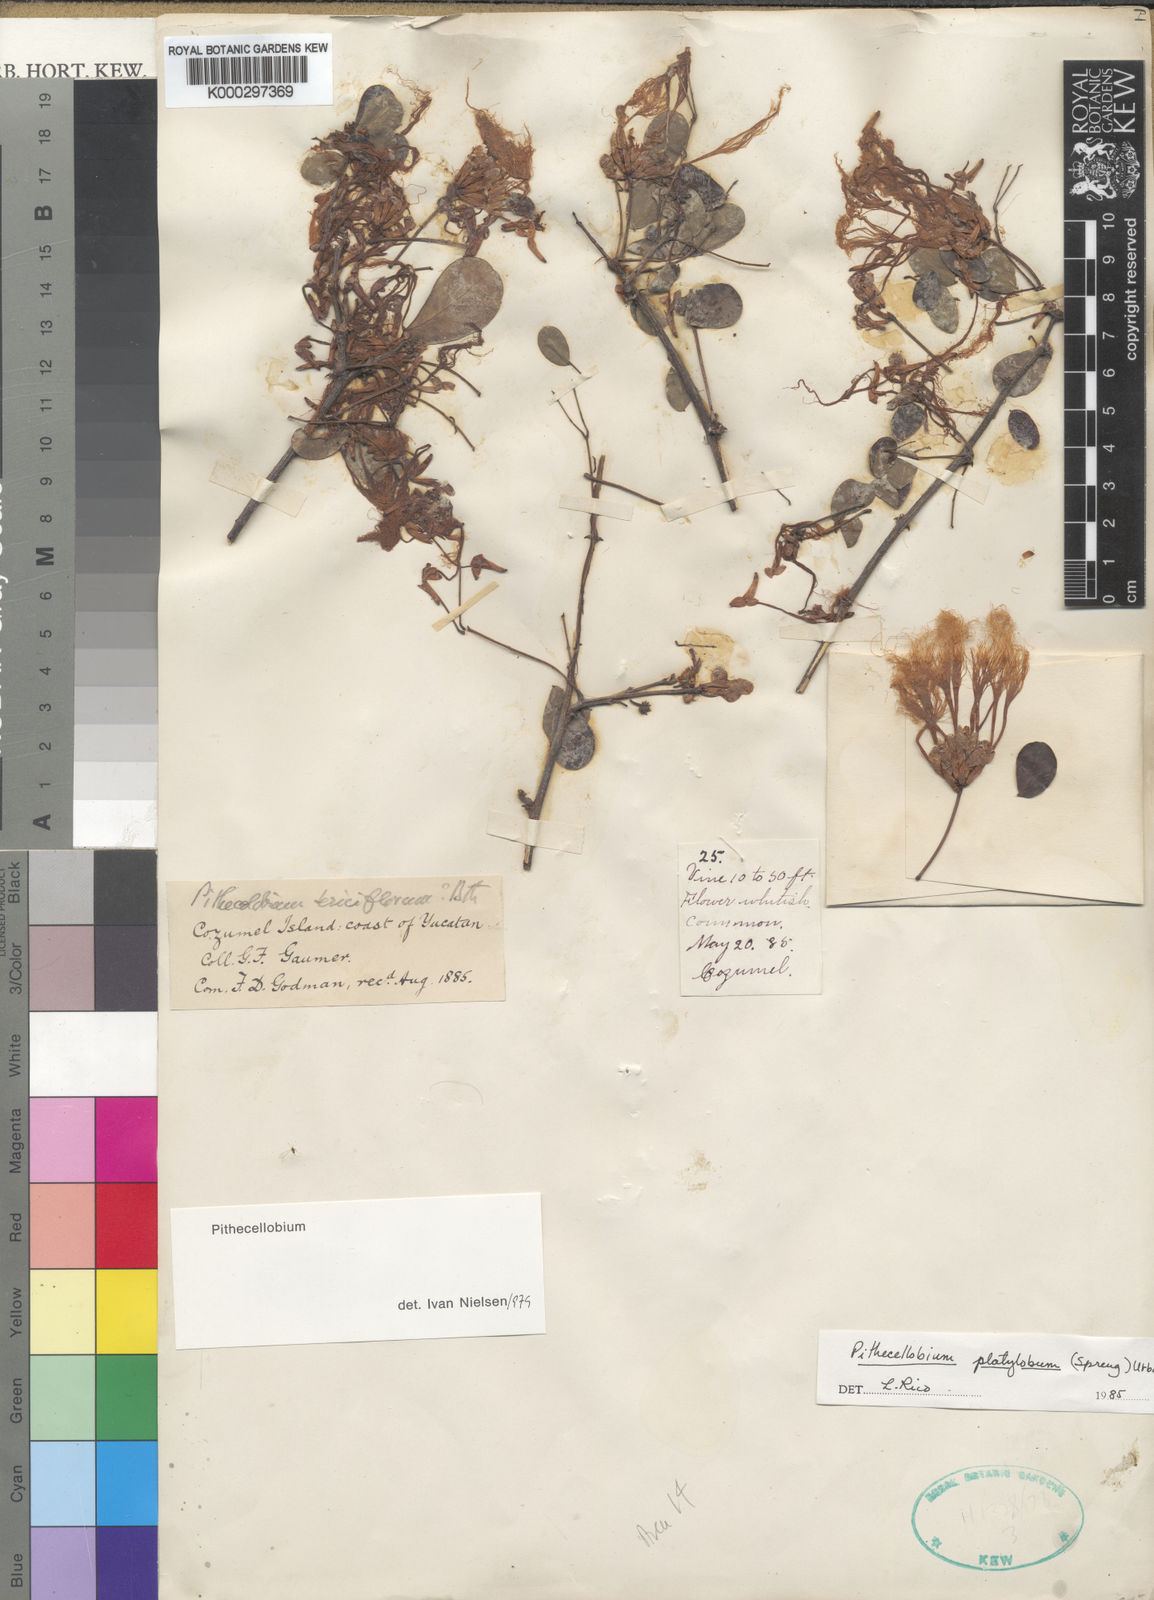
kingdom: Plantae
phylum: Tracheophyta
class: Magnoliopsida
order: Fabales
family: Fabaceae
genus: Havardia
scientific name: Havardia platyloba
